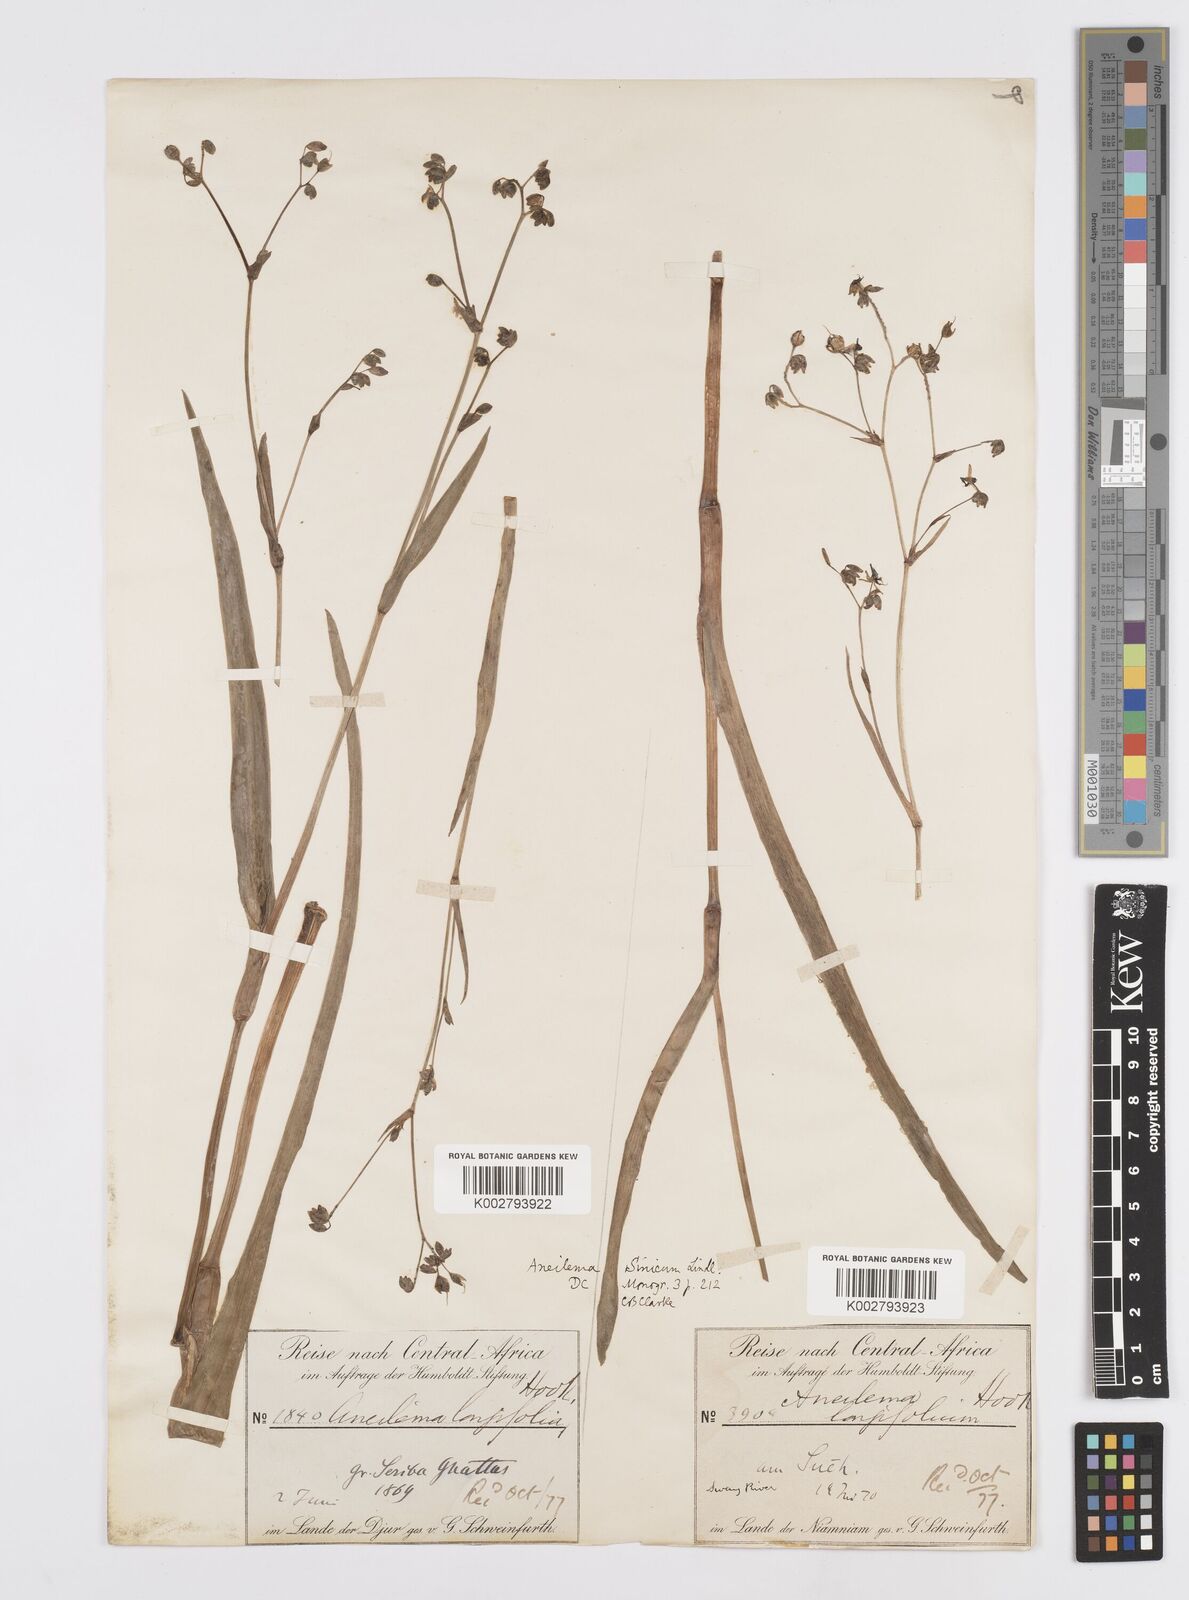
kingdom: Plantae
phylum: Tracheophyta
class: Liliopsida
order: Commelinales
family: Commelinaceae
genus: Murdannia
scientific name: Murdannia simplex
